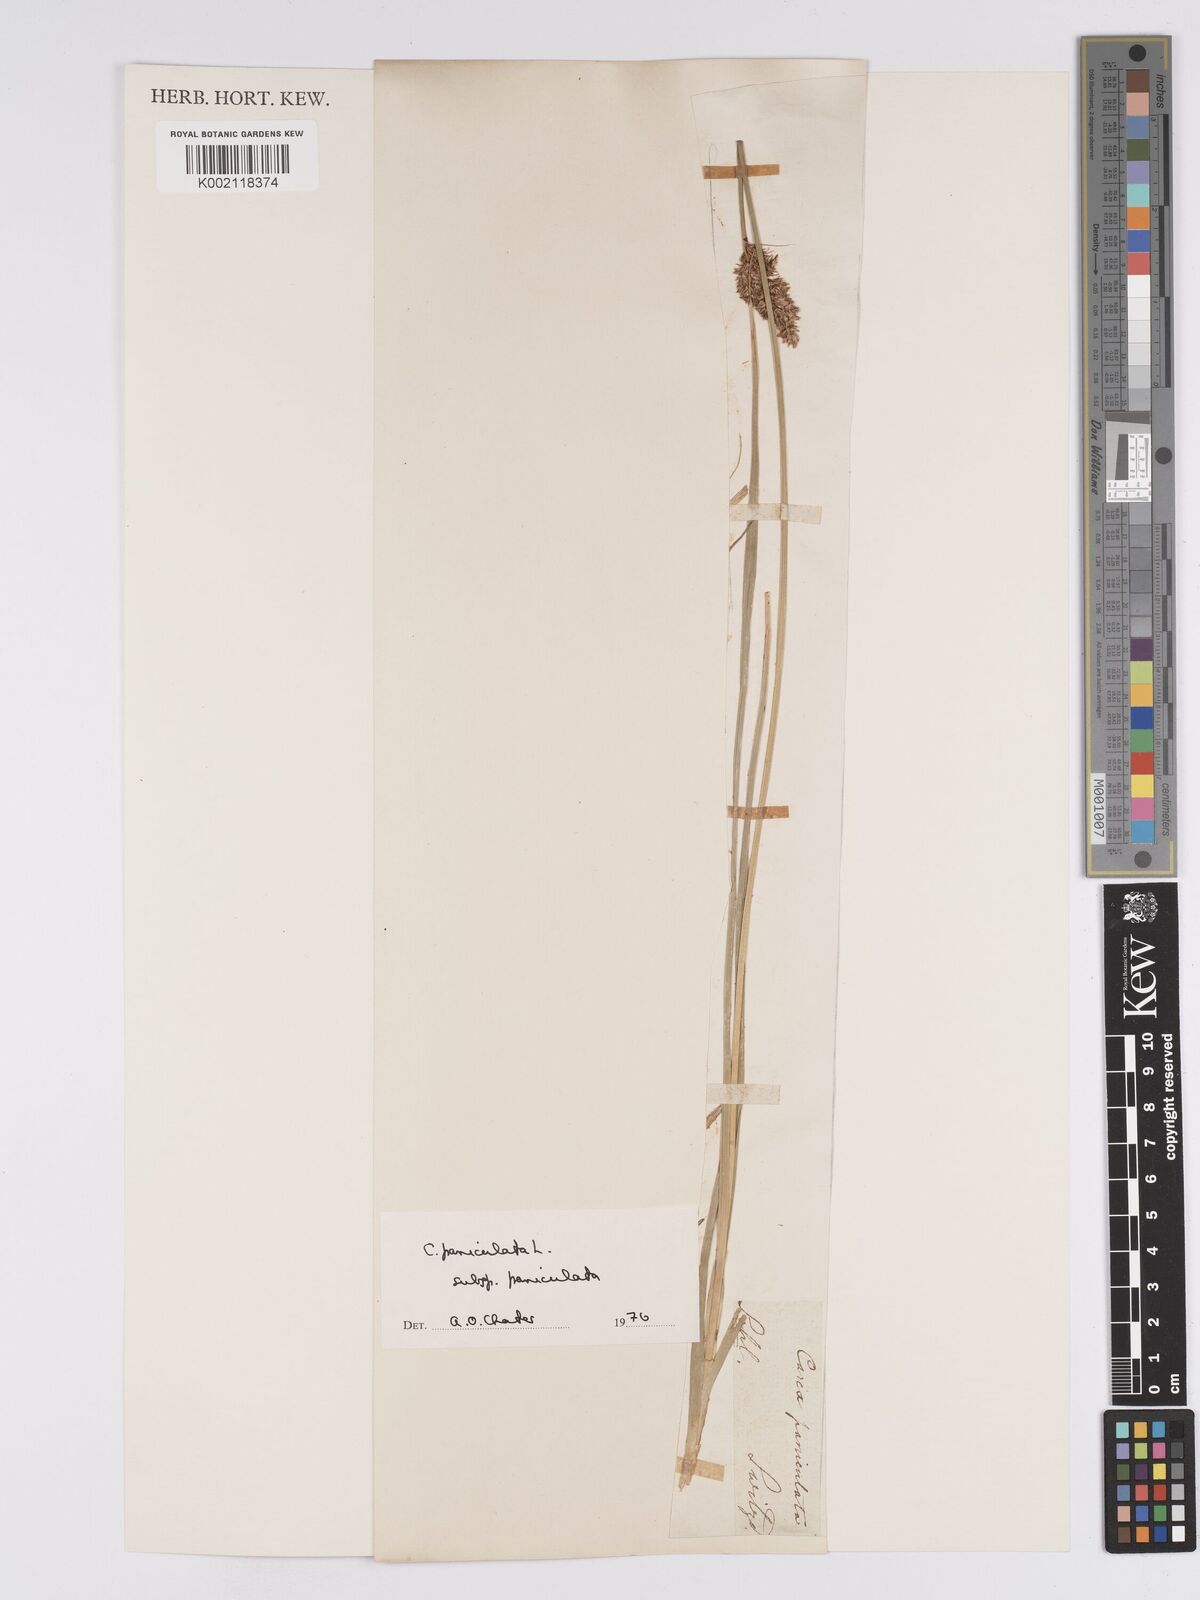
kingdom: Plantae
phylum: Tracheophyta
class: Liliopsida
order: Poales
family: Cyperaceae
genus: Carex
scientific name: Carex paniculata
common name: Greater tussock-sedge
